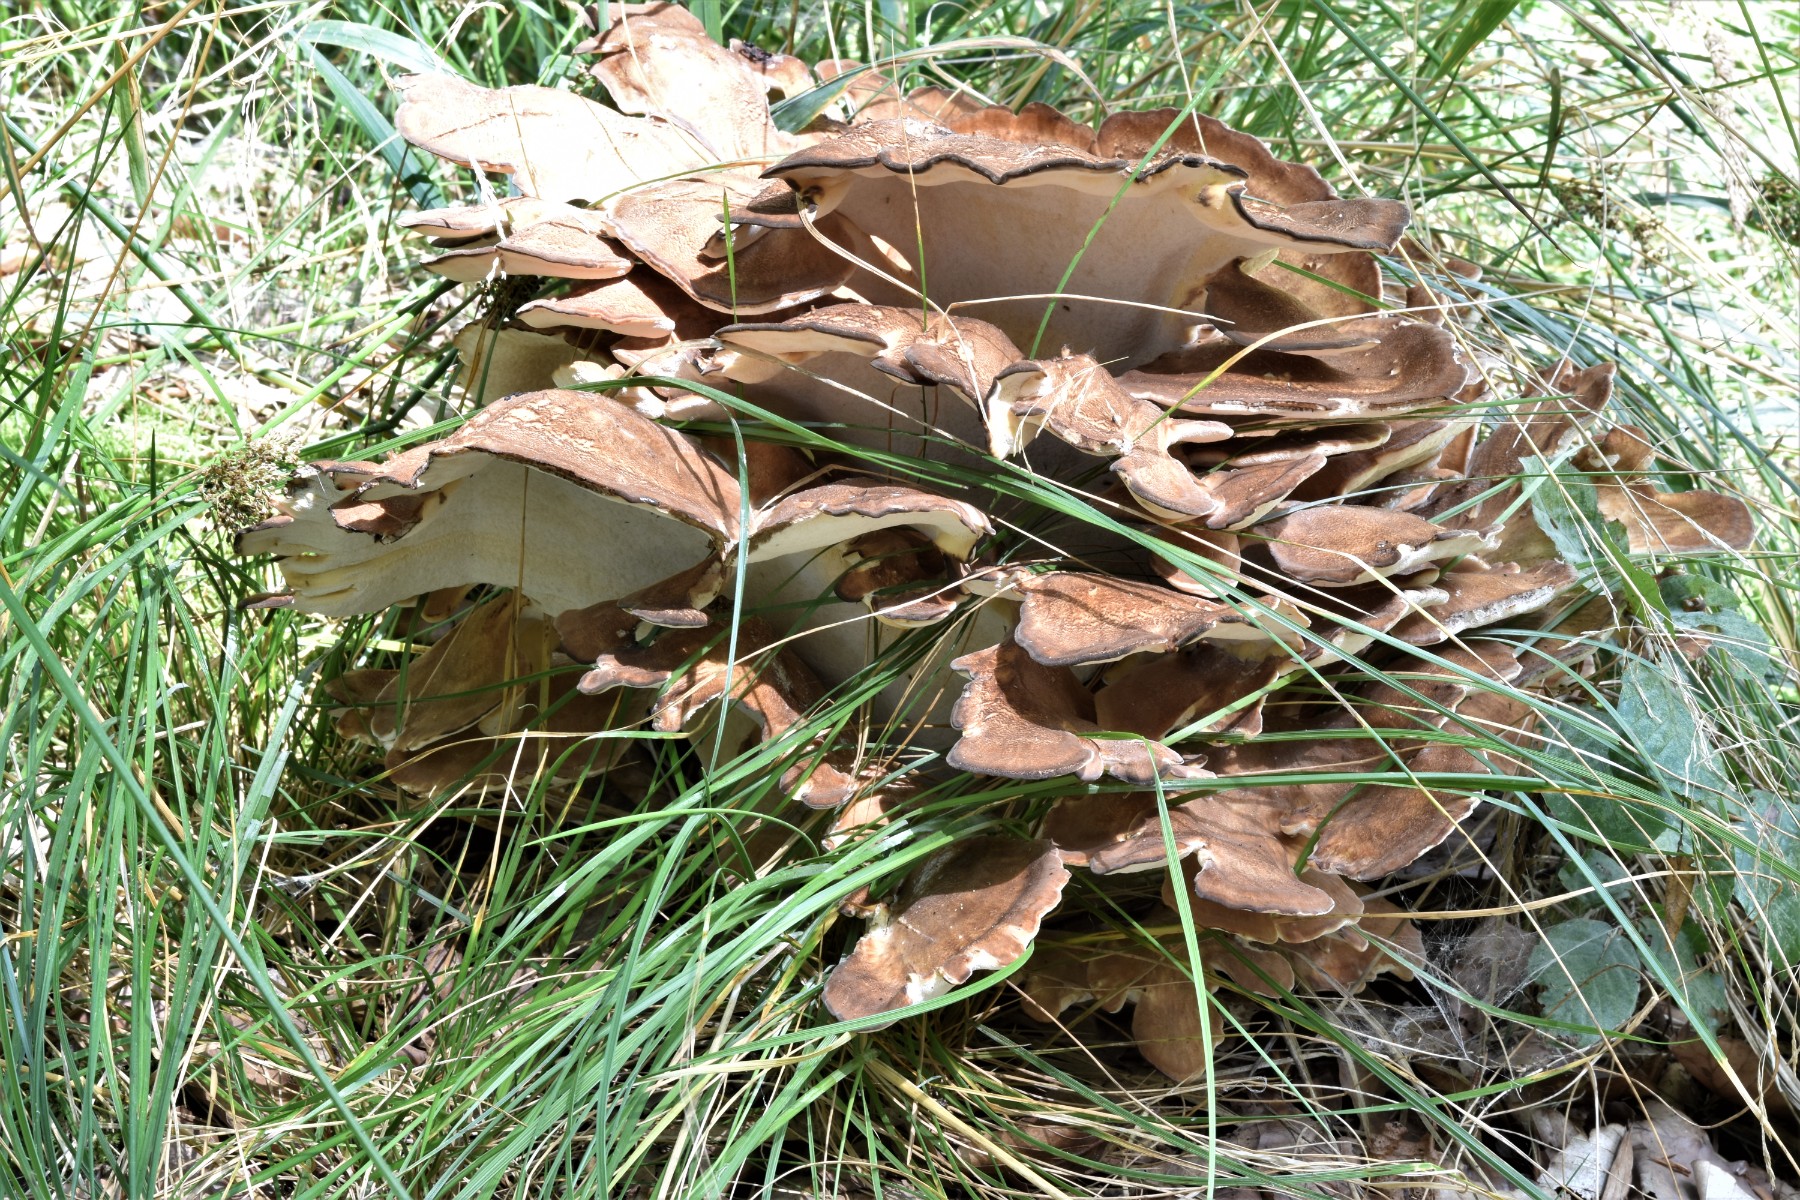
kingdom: Fungi
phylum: Basidiomycota
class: Agaricomycetes
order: Polyporales
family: Meripilaceae
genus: Meripilus
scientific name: Meripilus giganteus
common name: kæmpeporesvamp
